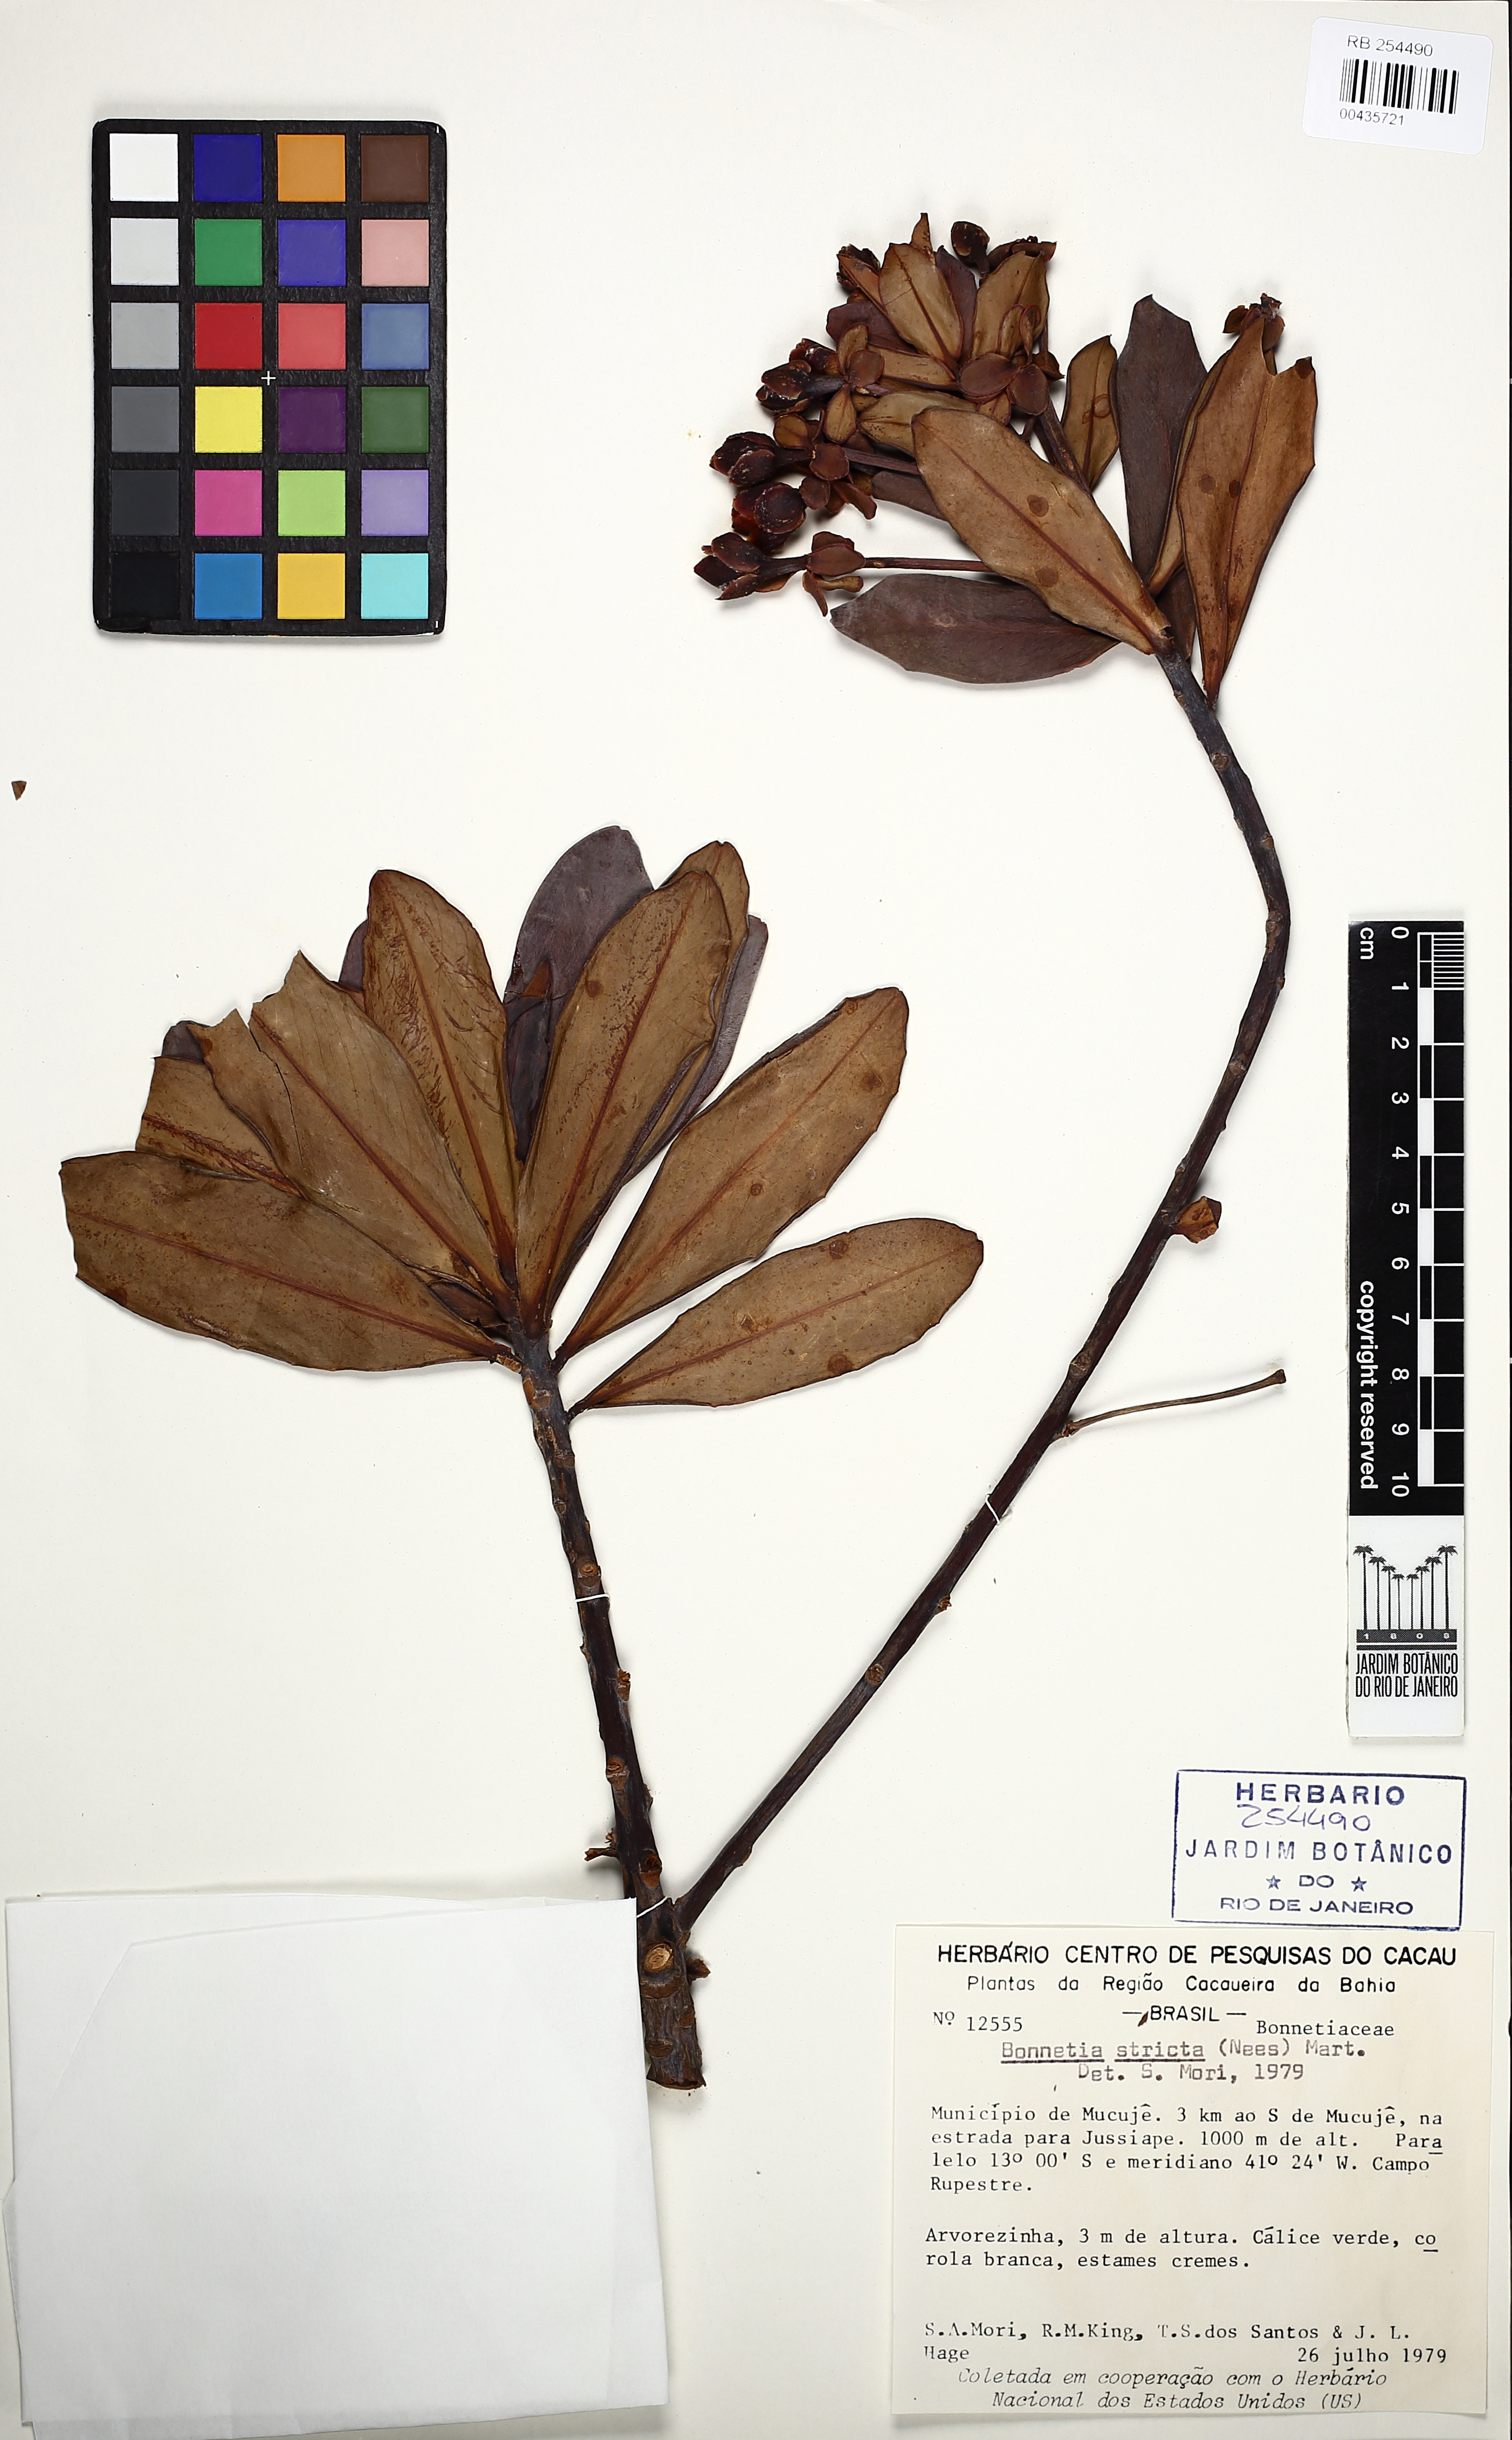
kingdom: Plantae
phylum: Tracheophyta
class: Magnoliopsida
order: Malpighiales
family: Bonnetiaceae
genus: Bonnetia
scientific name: Bonnetia stricta
